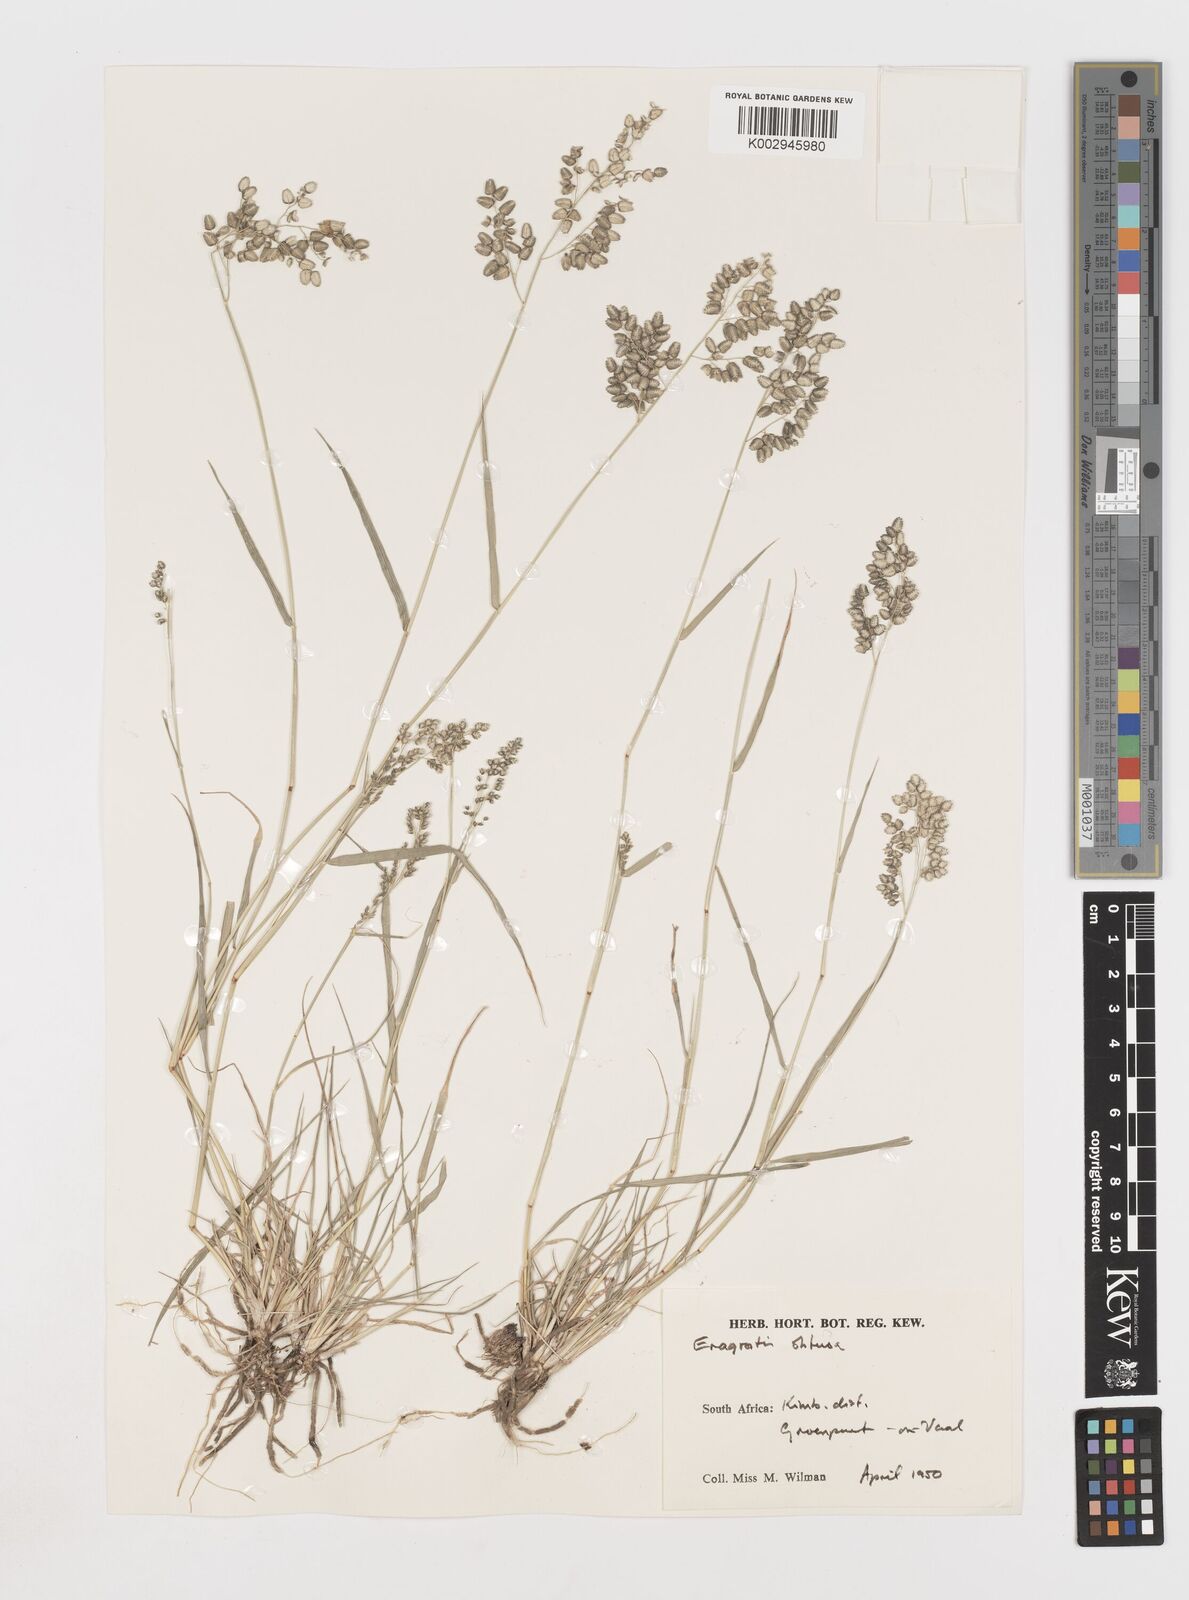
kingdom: Plantae
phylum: Tracheophyta
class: Liliopsida
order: Poales
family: Poaceae
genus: Eragrostis
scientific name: Eragrostis obtusa
